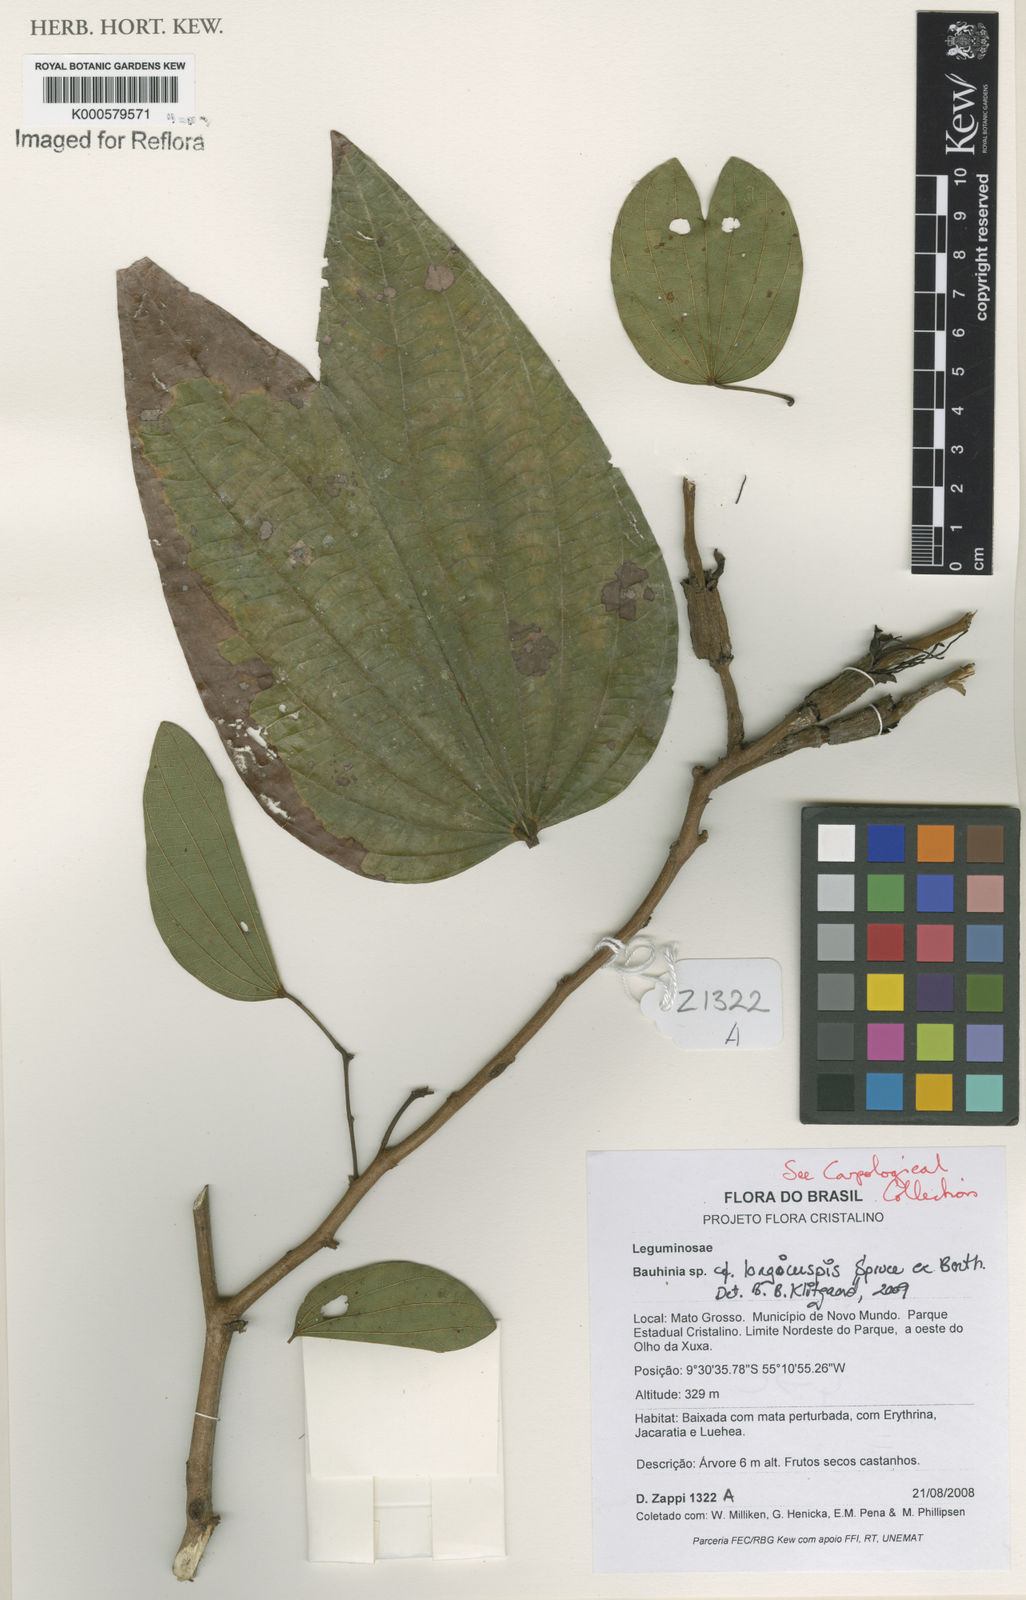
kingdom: Plantae
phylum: Tracheophyta
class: Magnoliopsida
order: Fabales
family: Fabaceae
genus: Bauhinia
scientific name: Bauhinia longicuspis
